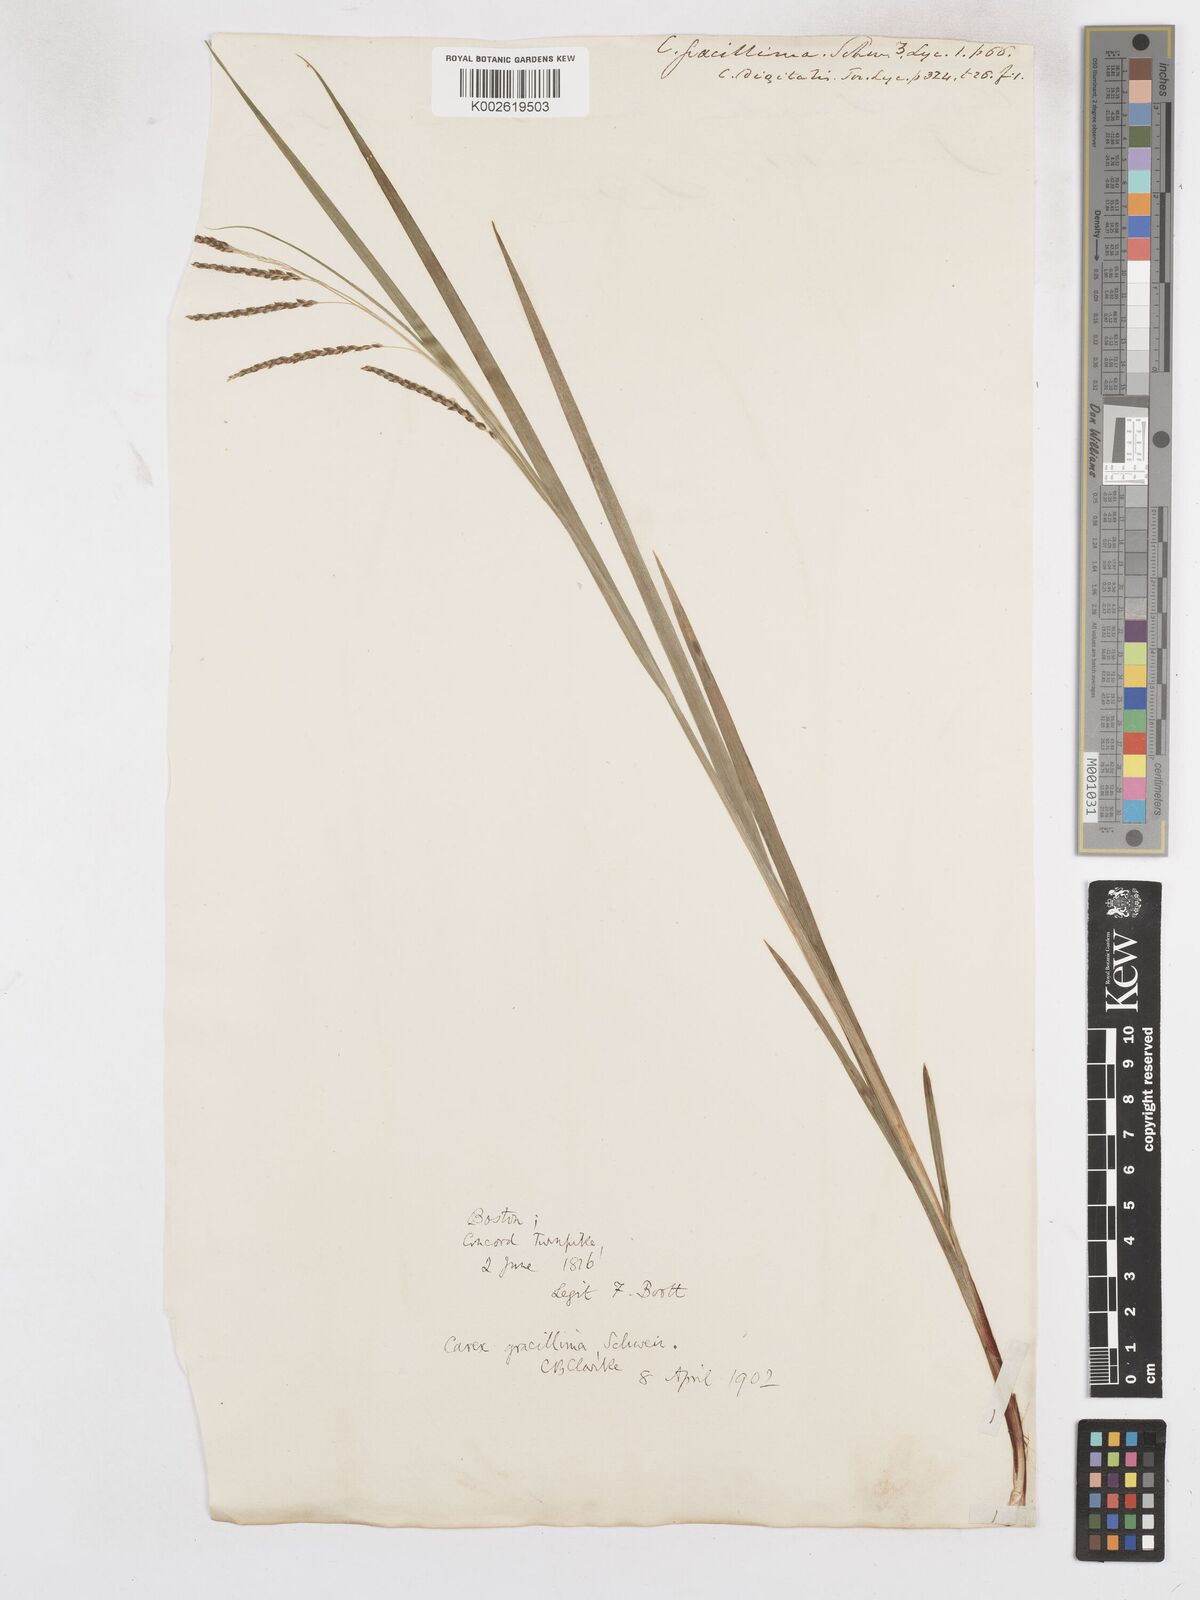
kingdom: Plantae
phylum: Tracheophyta
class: Liliopsida
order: Poales
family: Cyperaceae
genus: Carex
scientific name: Carex gracillima
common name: Graceful sedge
